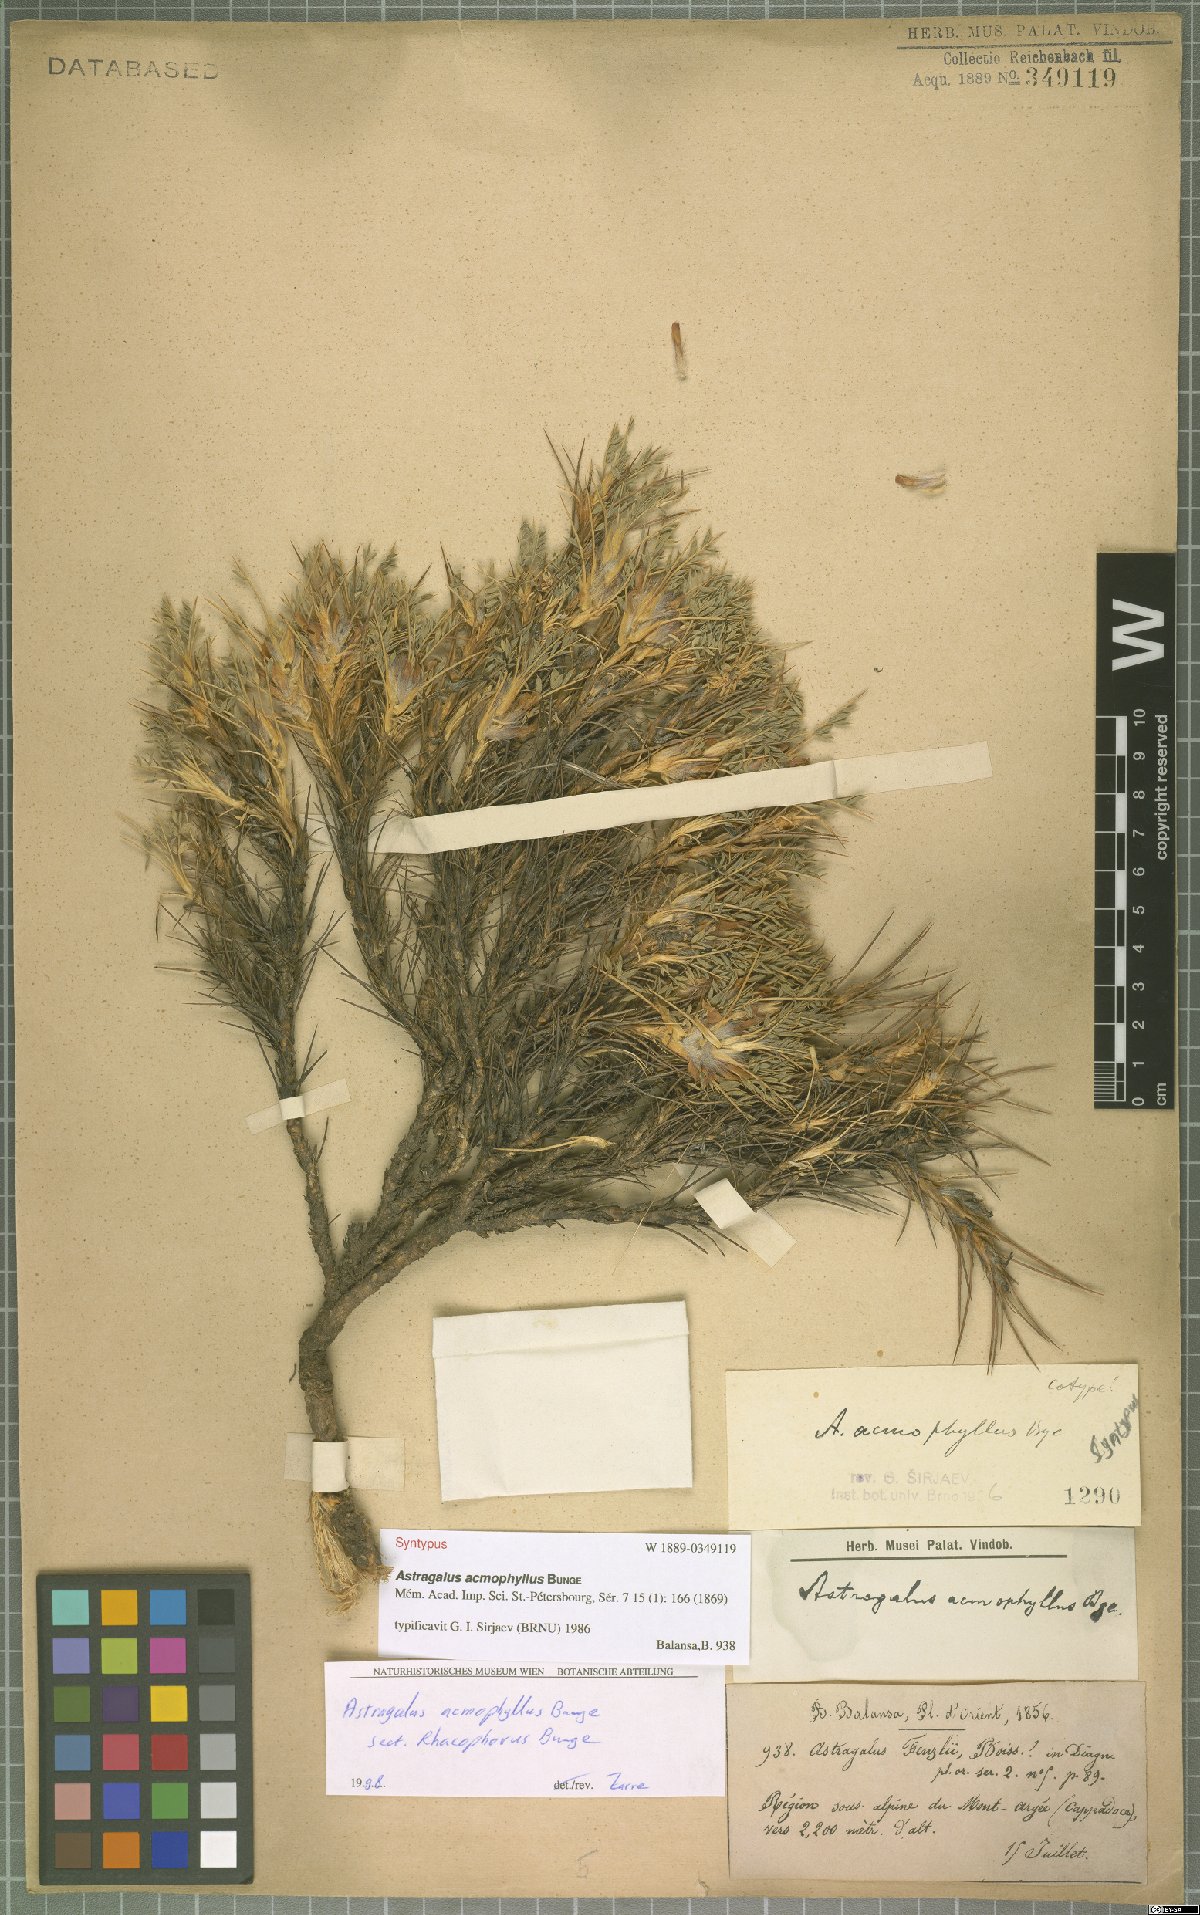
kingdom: Plantae
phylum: Tracheophyta
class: Magnoliopsida
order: Fabales
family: Fabaceae
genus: Astragalus
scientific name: Astragalus acmophyllus
